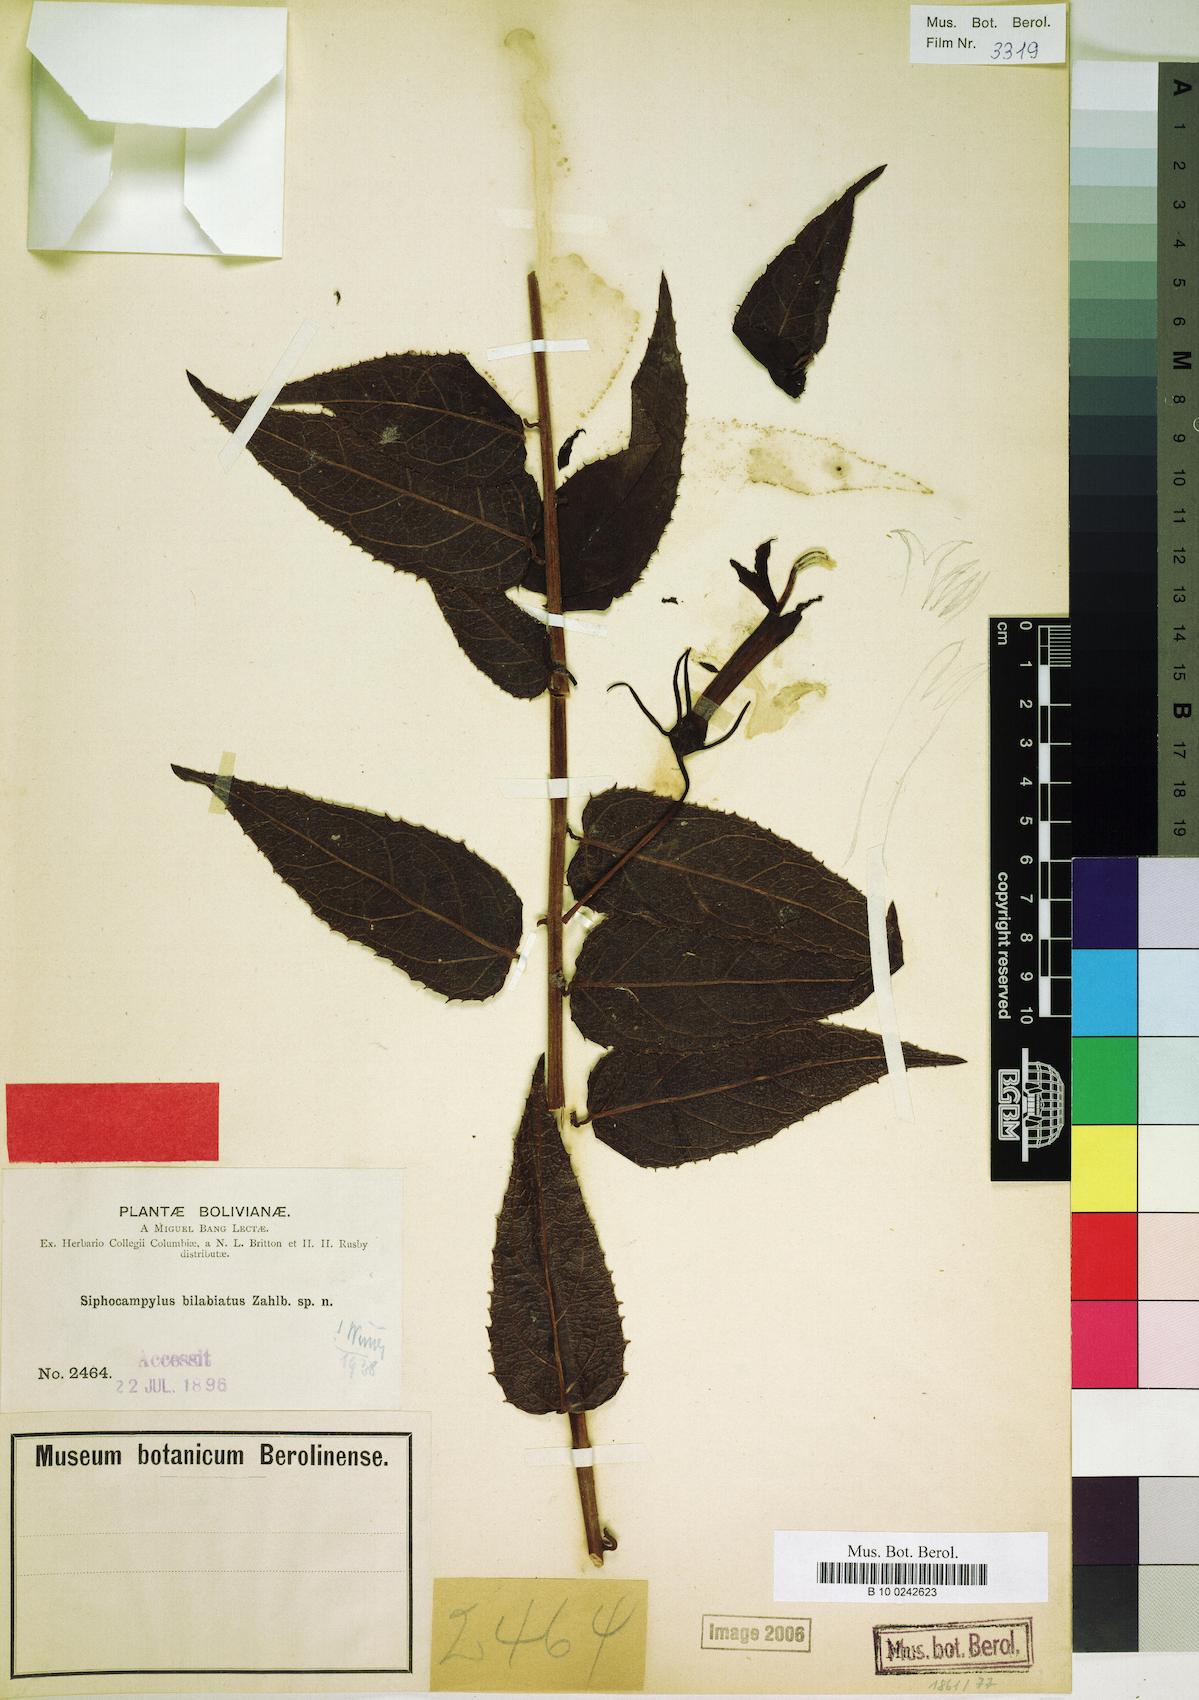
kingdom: Plantae
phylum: Tracheophyta
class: Magnoliopsida
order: Asterales
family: Campanulaceae
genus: Siphocampylus
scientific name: Siphocampylus bilabiatus
